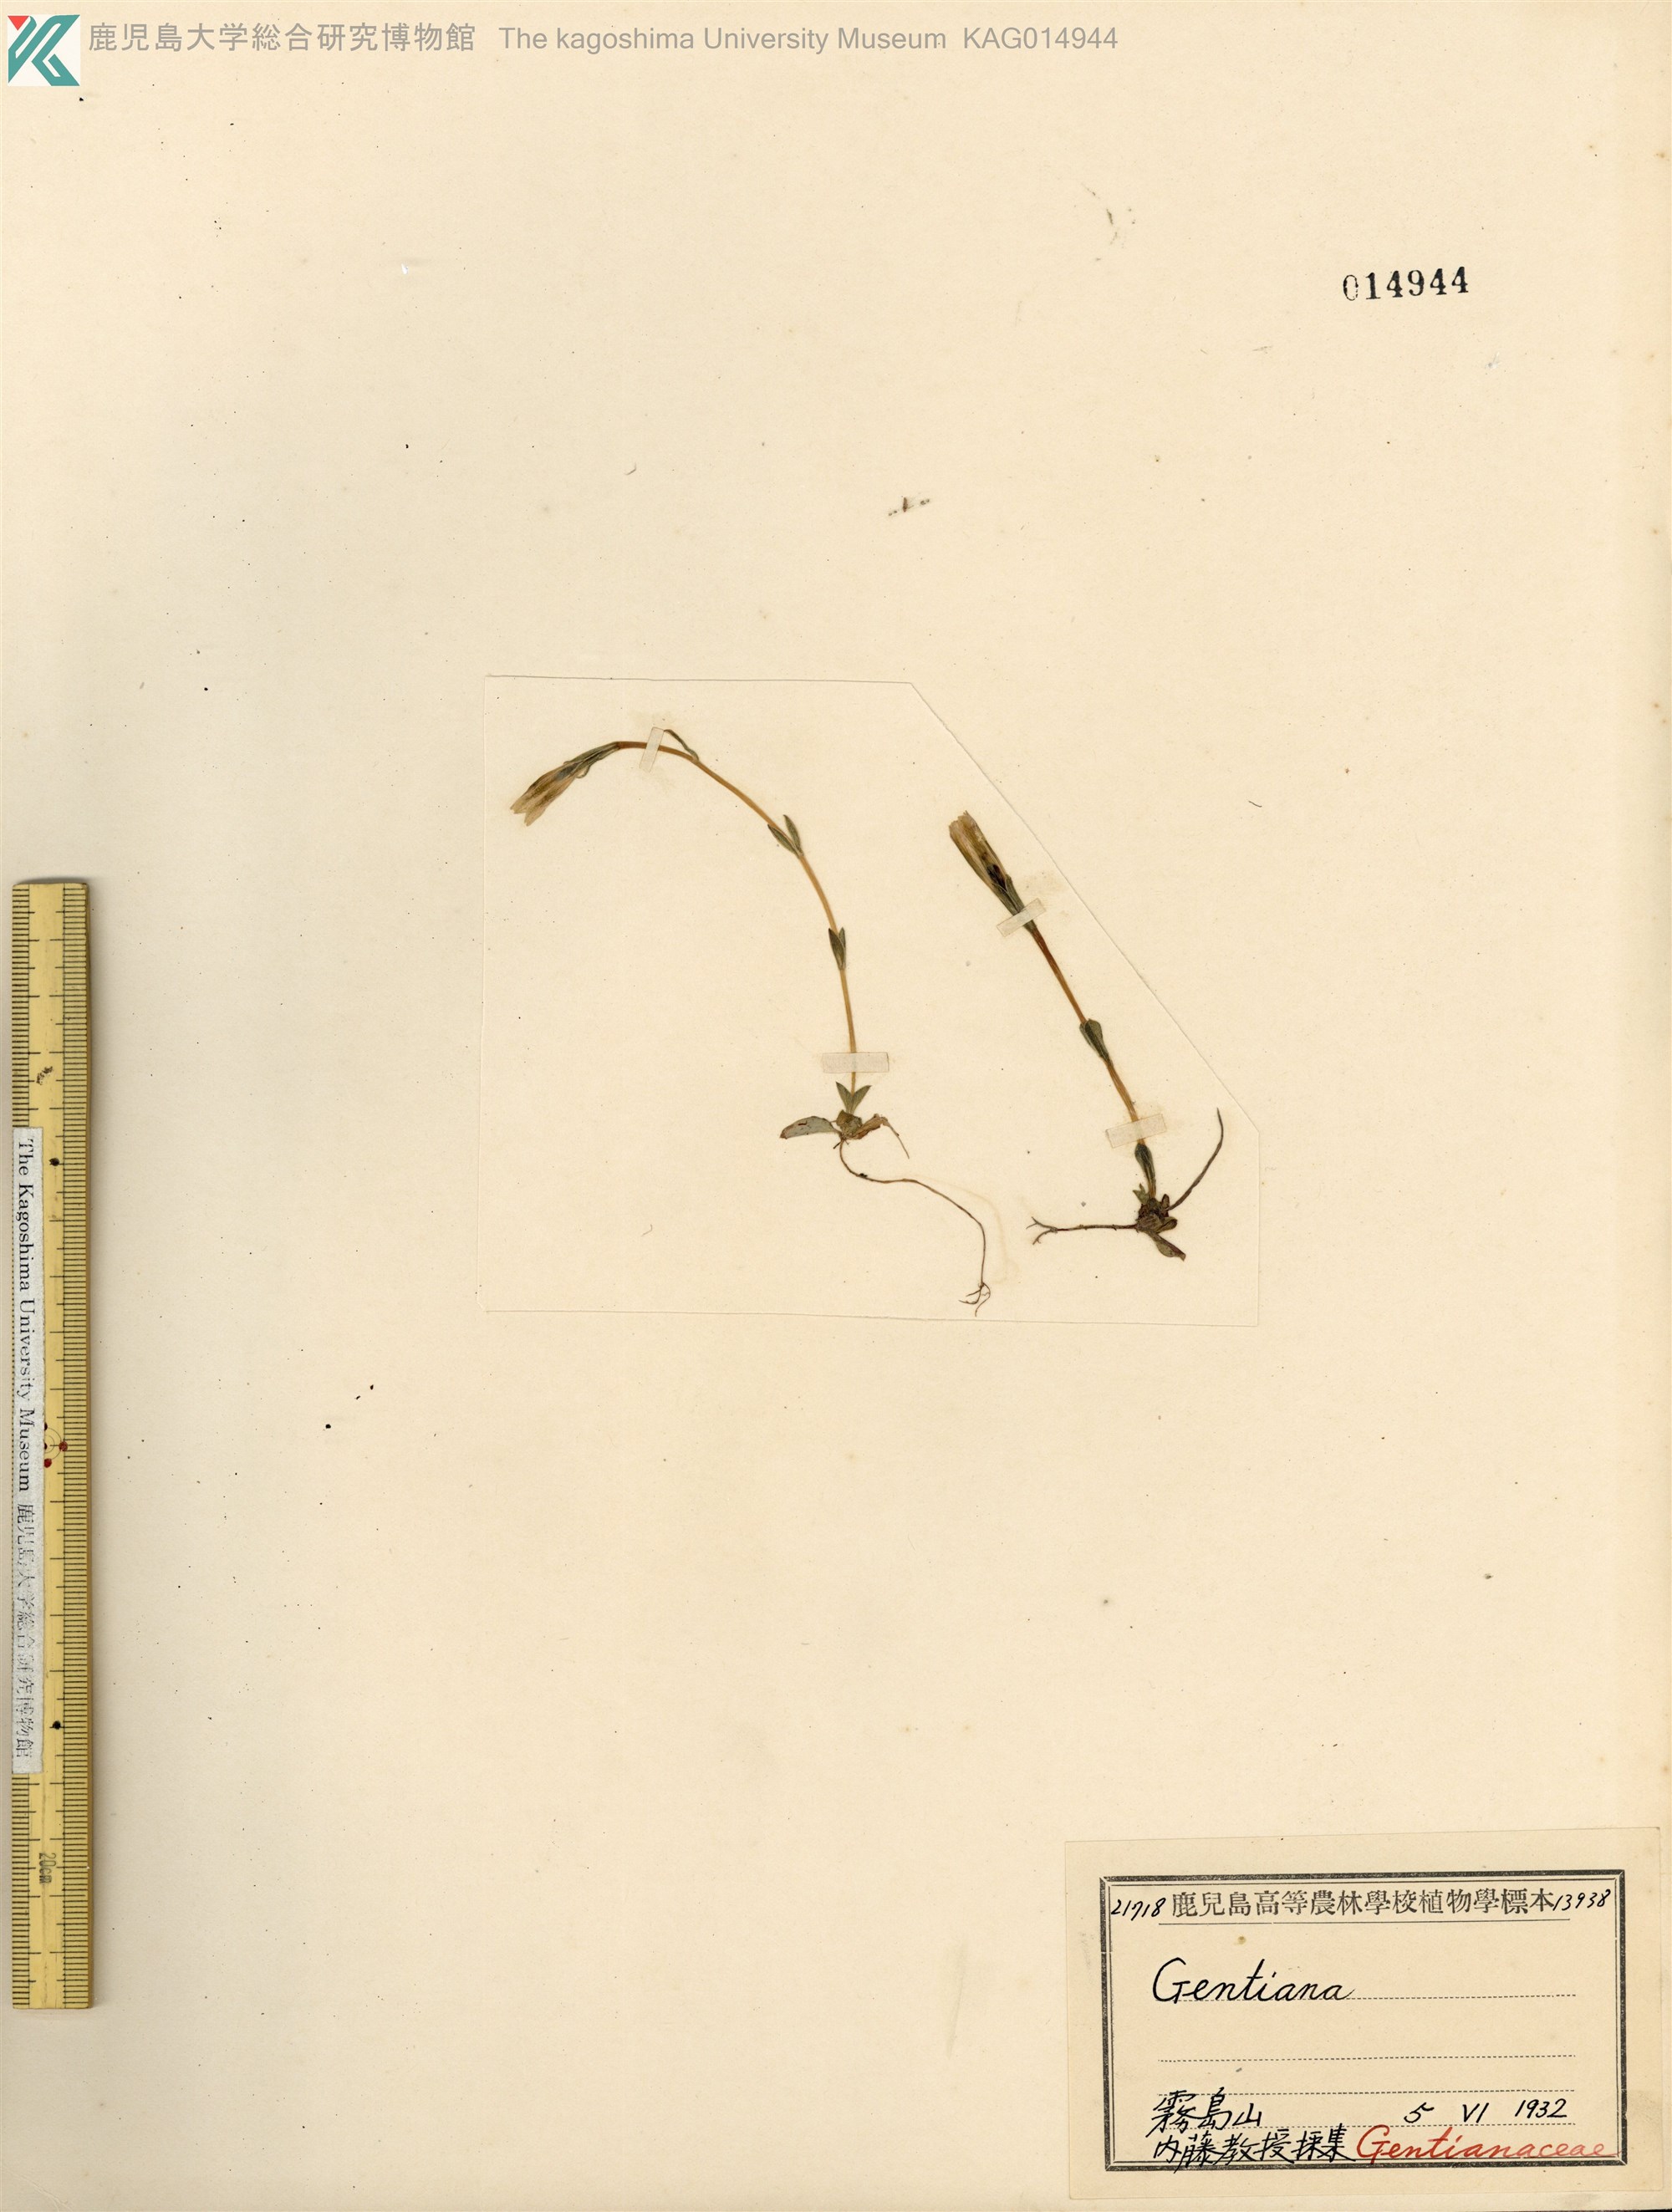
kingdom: Plantae
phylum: Tracheophyta
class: Magnoliopsida
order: Gentianales
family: Gentianaceae
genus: Gentiana
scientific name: Gentiana thunbergii
